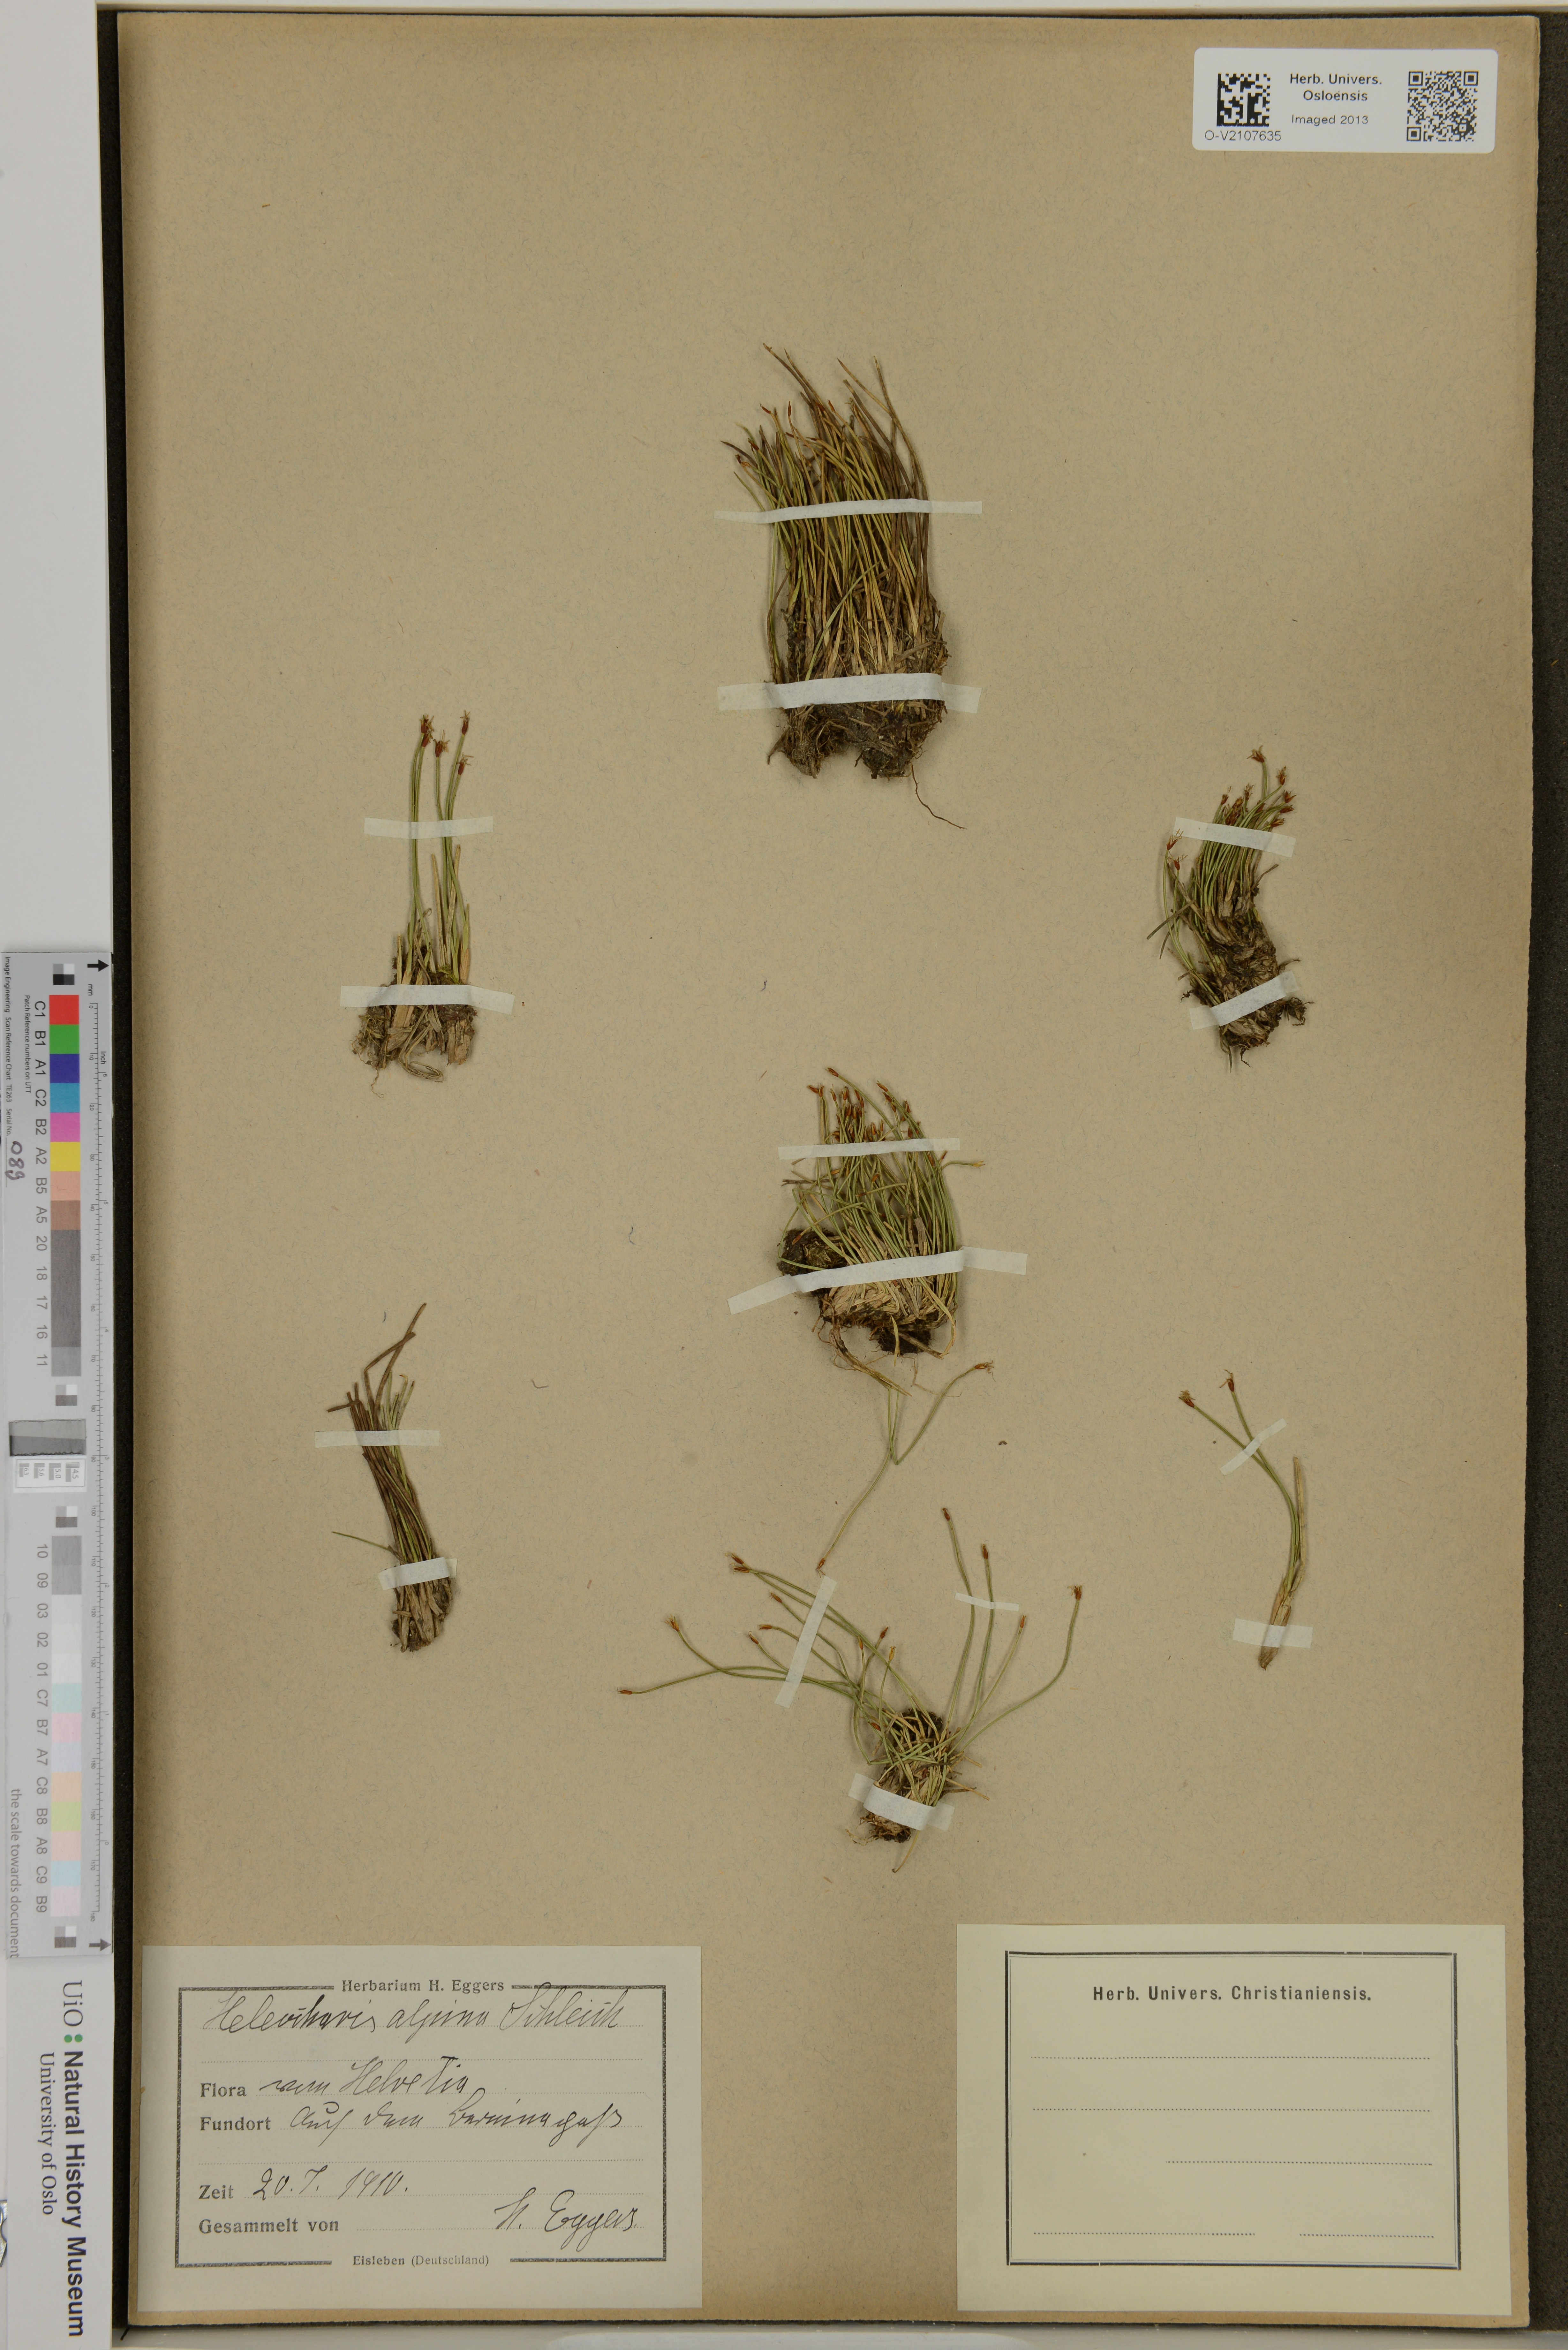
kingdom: Plantae
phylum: Tracheophyta
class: Liliopsida
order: Poales
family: Cyperaceae
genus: Trichophorum
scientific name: Trichophorum alpinum
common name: Alpine bulrush
